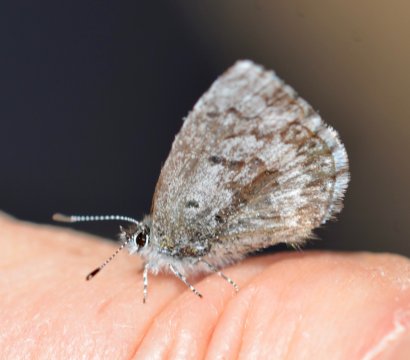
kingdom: Animalia
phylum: Arthropoda
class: Insecta
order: Lepidoptera
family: Lycaenidae
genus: Celastrina
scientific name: Celastrina lucia
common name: Northern Spring Azure
